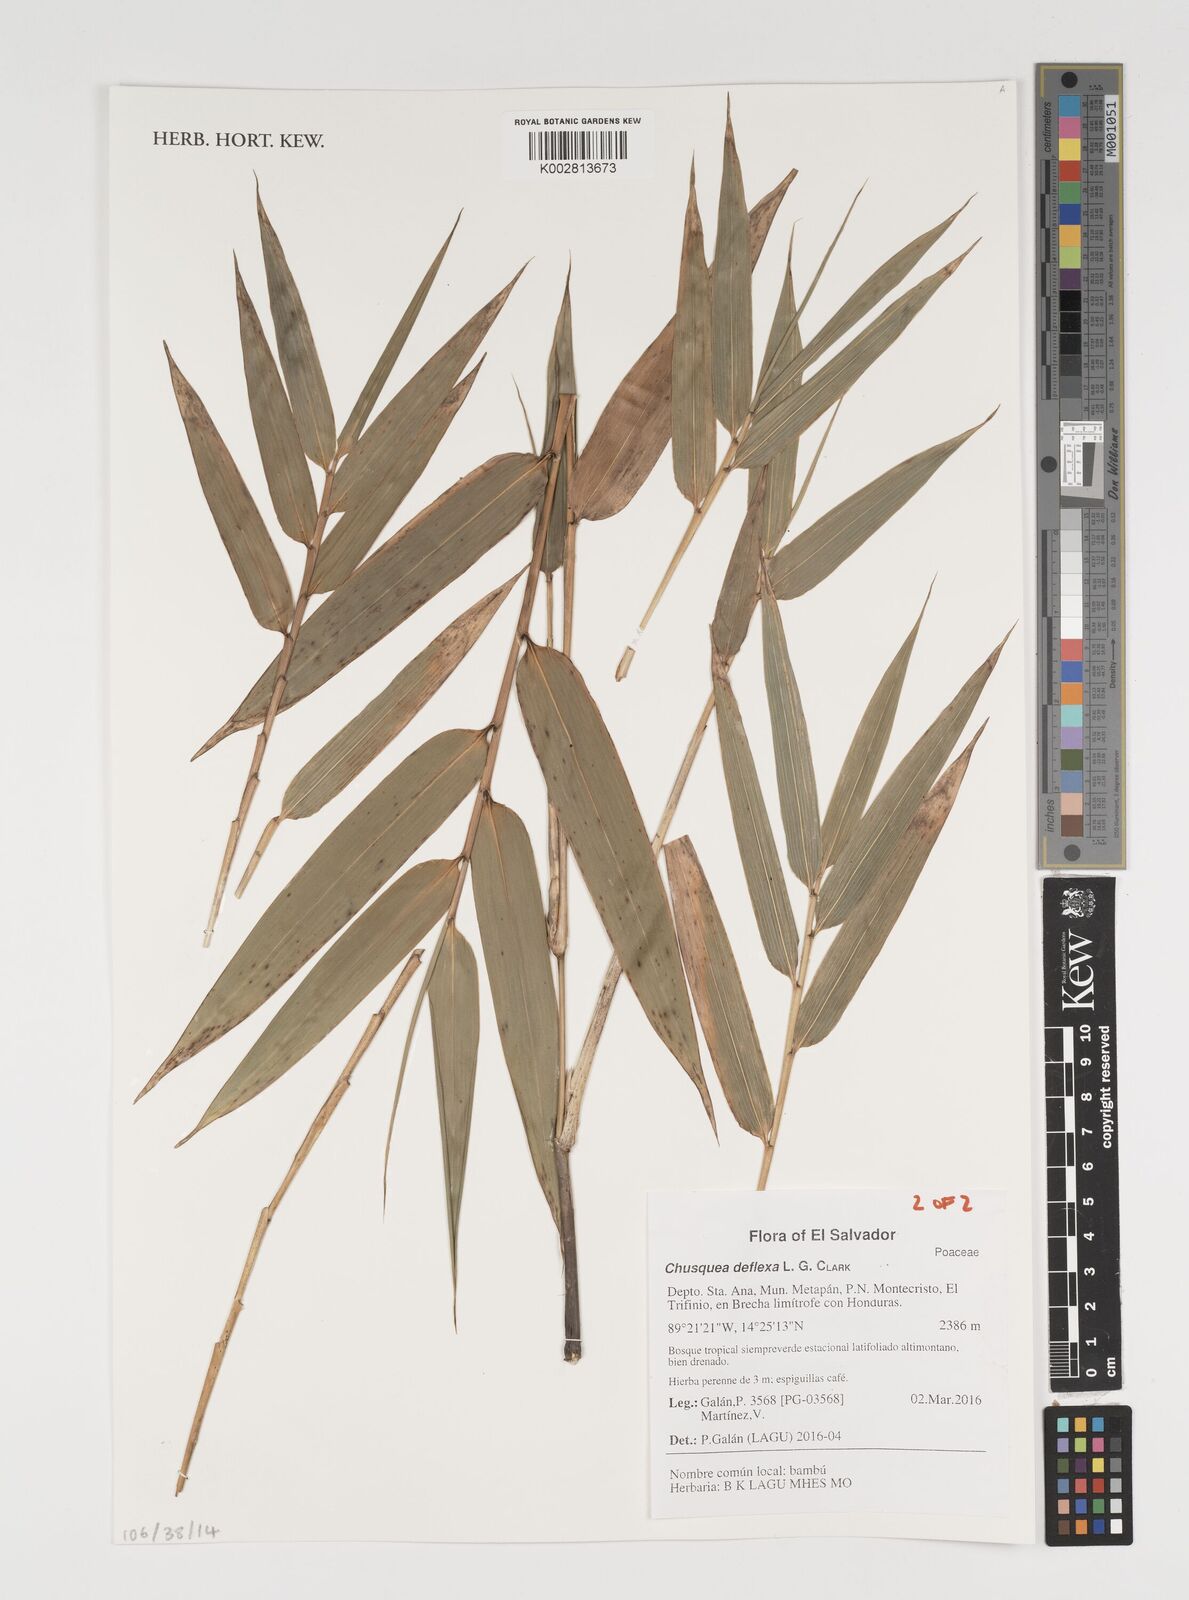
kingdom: Plantae
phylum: Tracheophyta
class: Liliopsida
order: Poales
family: Poaceae
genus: Chusquea
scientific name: Chusquea deflexa
